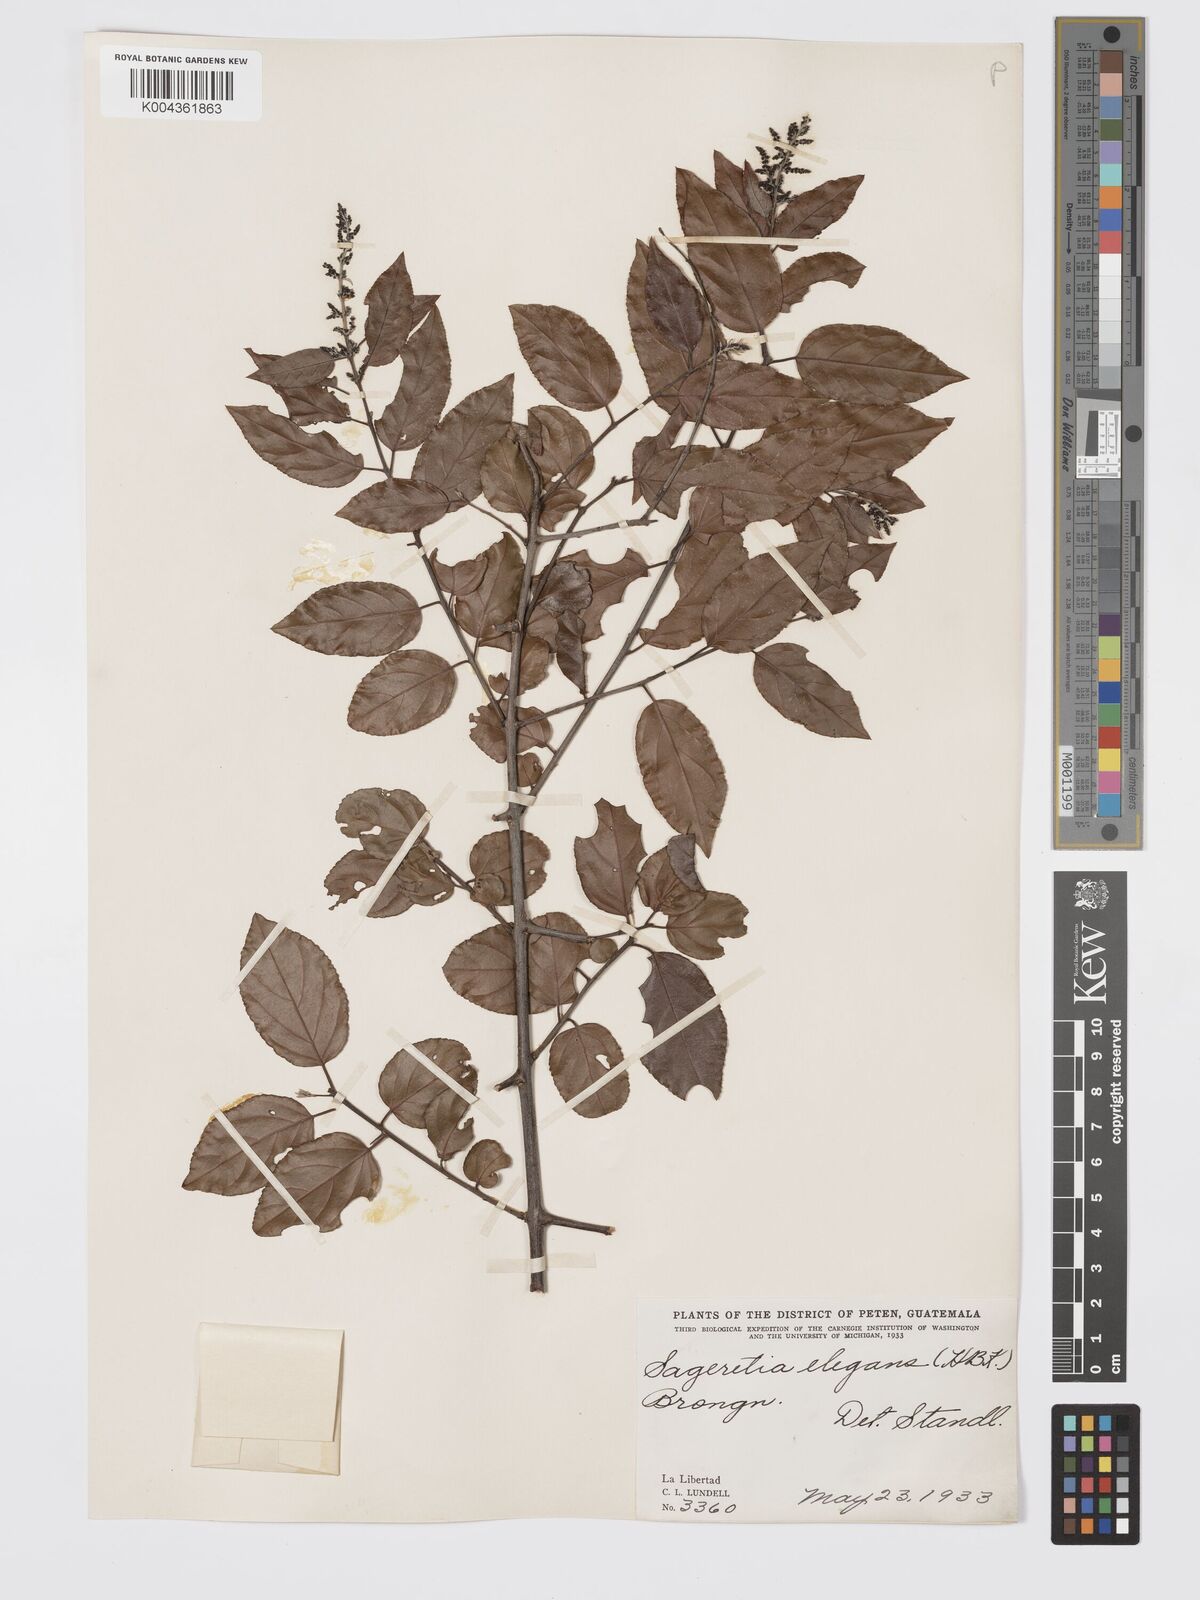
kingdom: Plantae
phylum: Tracheophyta
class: Magnoliopsida
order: Rosales
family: Rhamnaceae
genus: Sageretia
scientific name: Sageretia elegans
